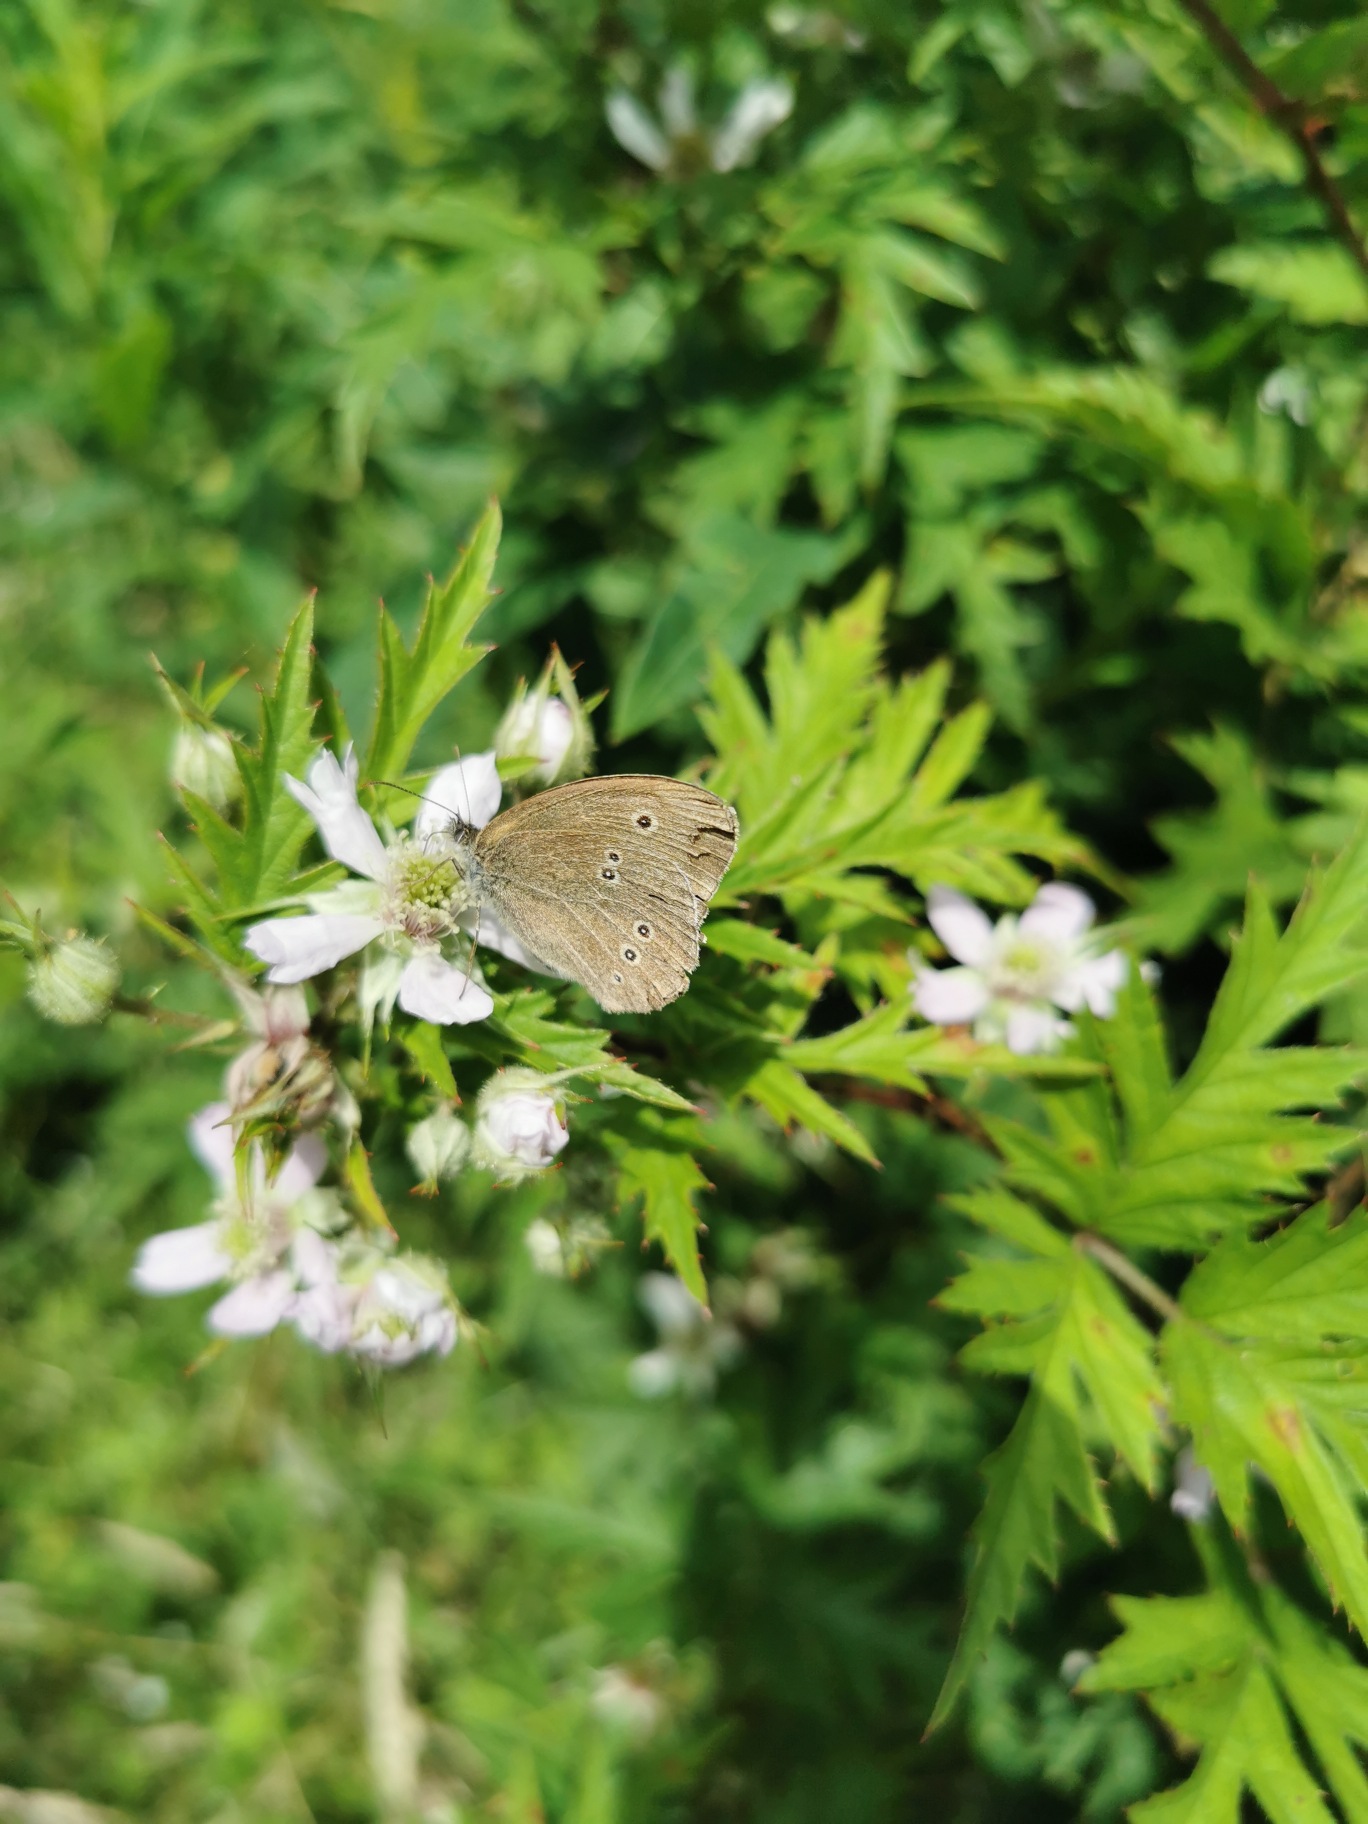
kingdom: Animalia
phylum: Arthropoda
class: Insecta
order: Lepidoptera
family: Nymphalidae
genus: Aphantopus
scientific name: Aphantopus hyperantus
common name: Engrandøje
